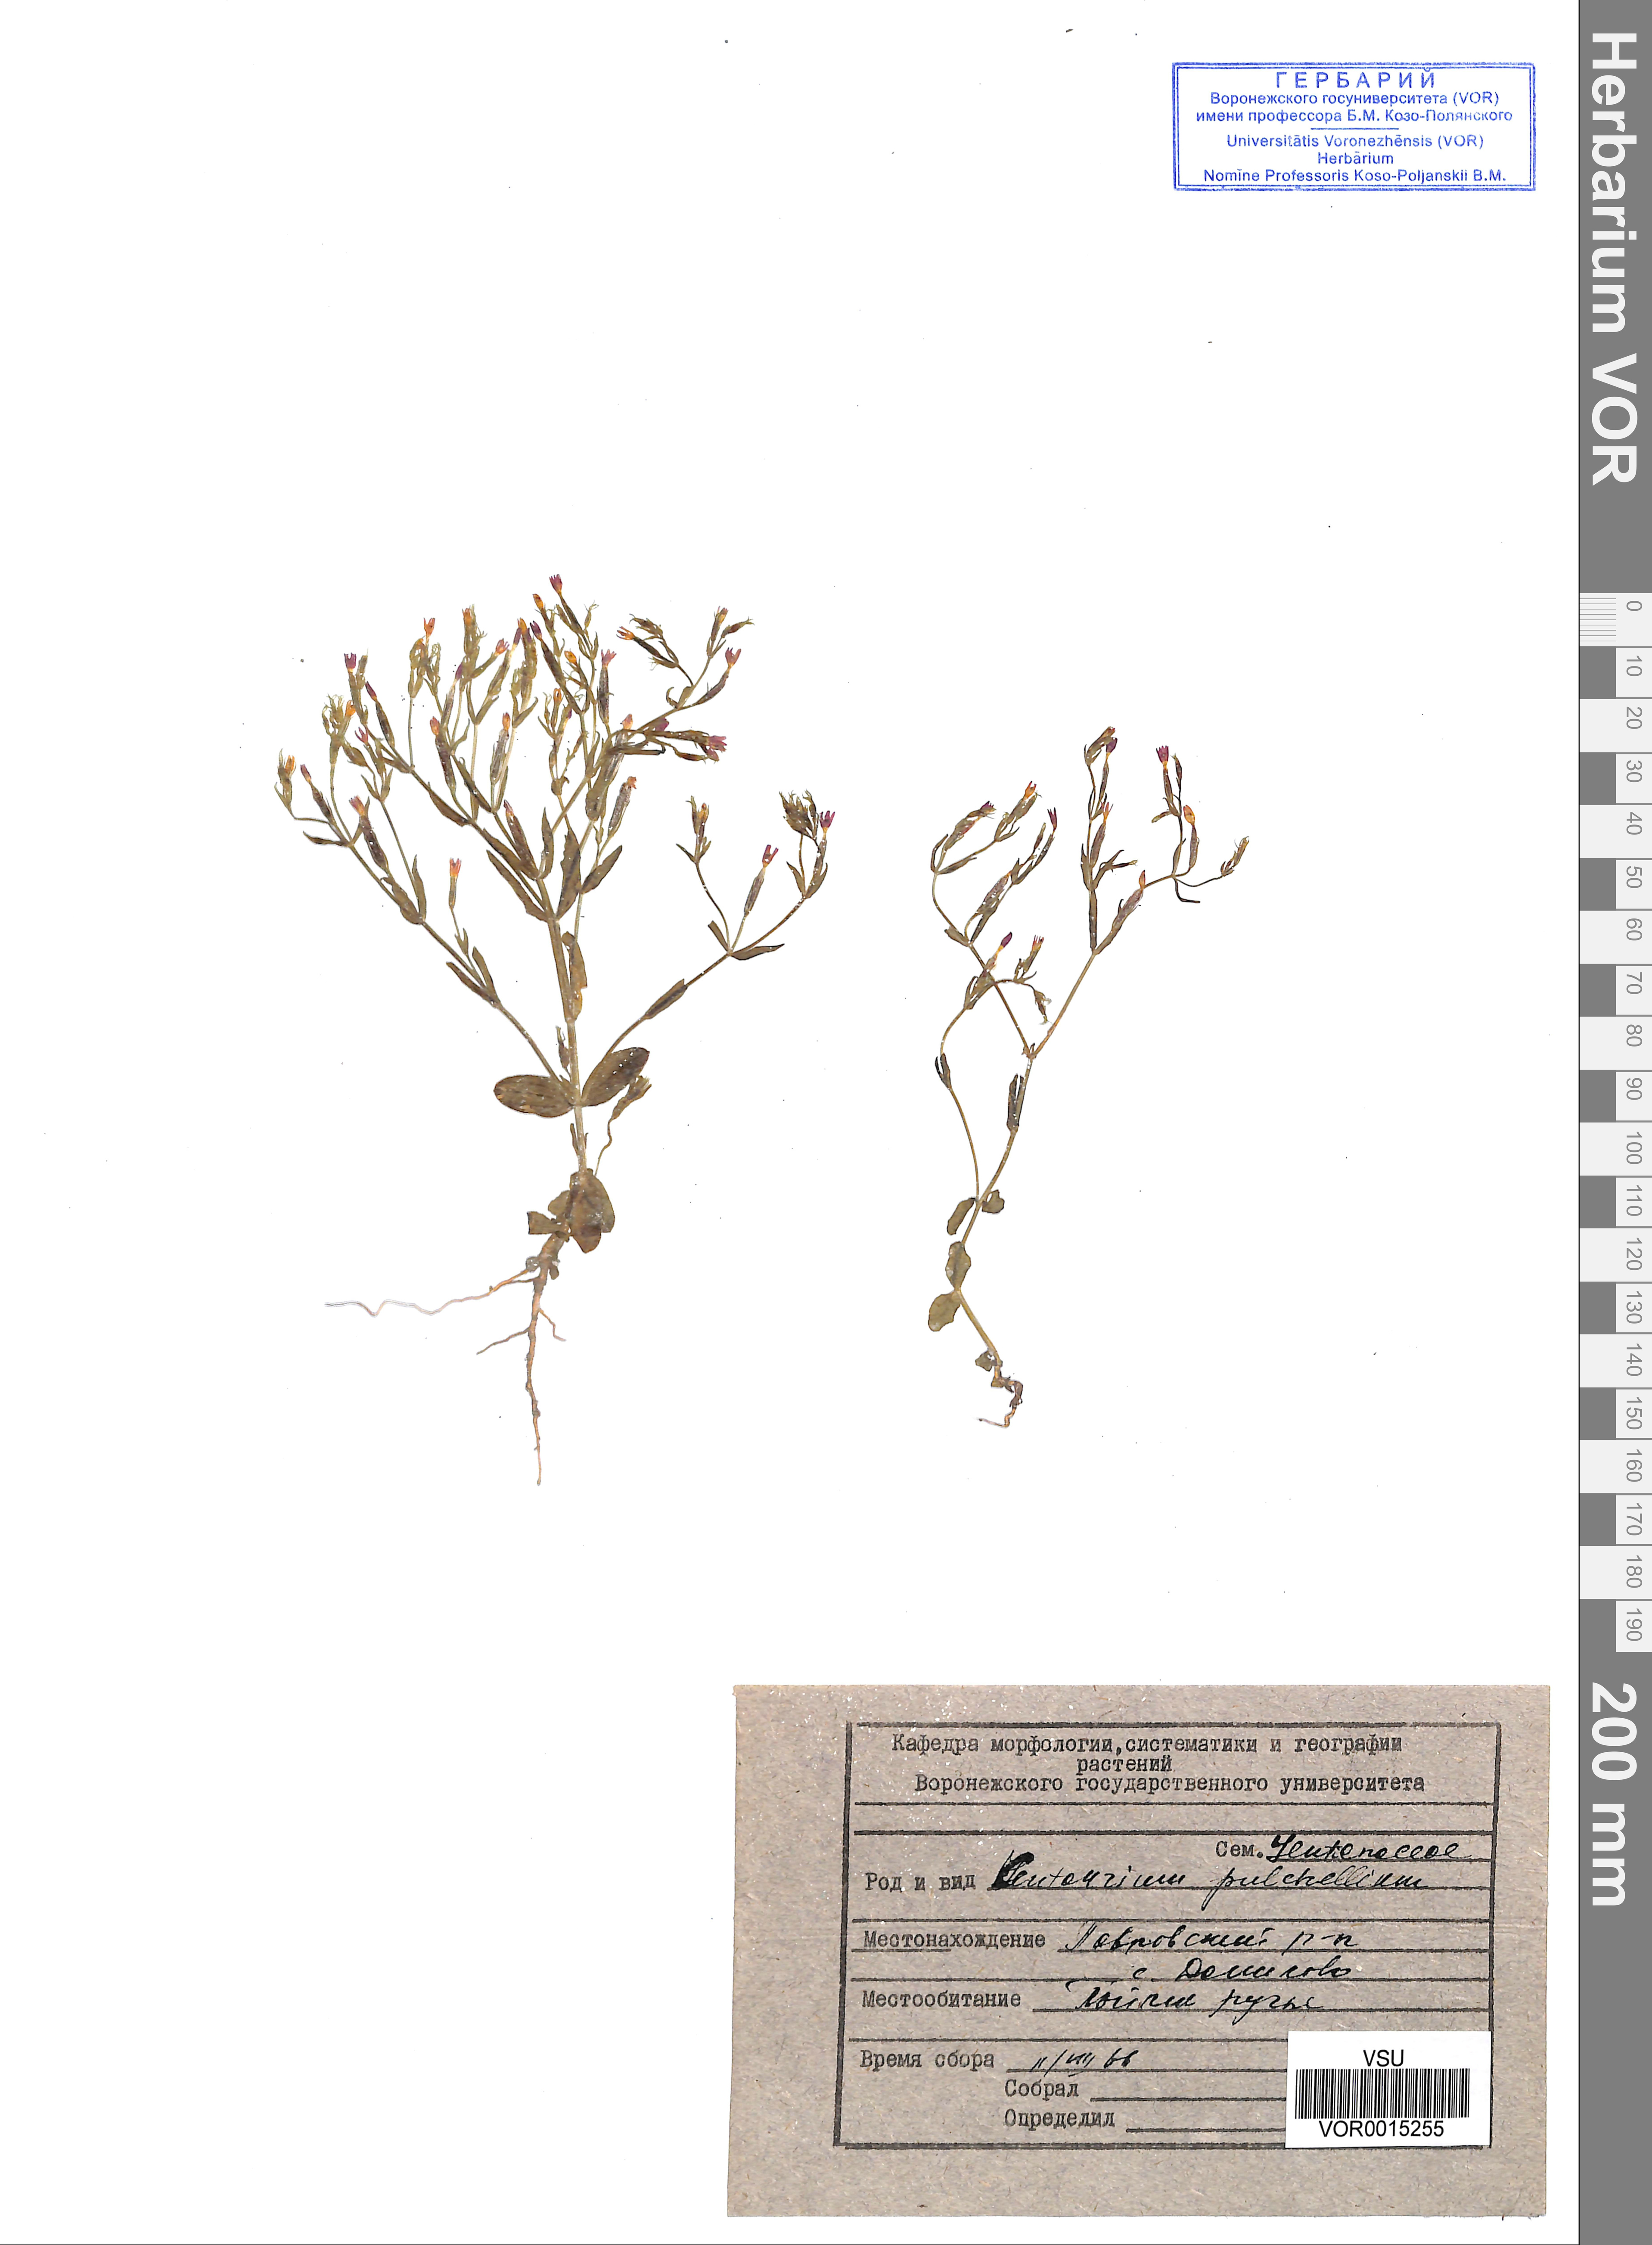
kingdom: Plantae
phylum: Tracheophyta
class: Magnoliopsida
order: Gentianales
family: Gentianaceae
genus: Centaurium
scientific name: Centaurium pulchellum
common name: Lesser centaury
